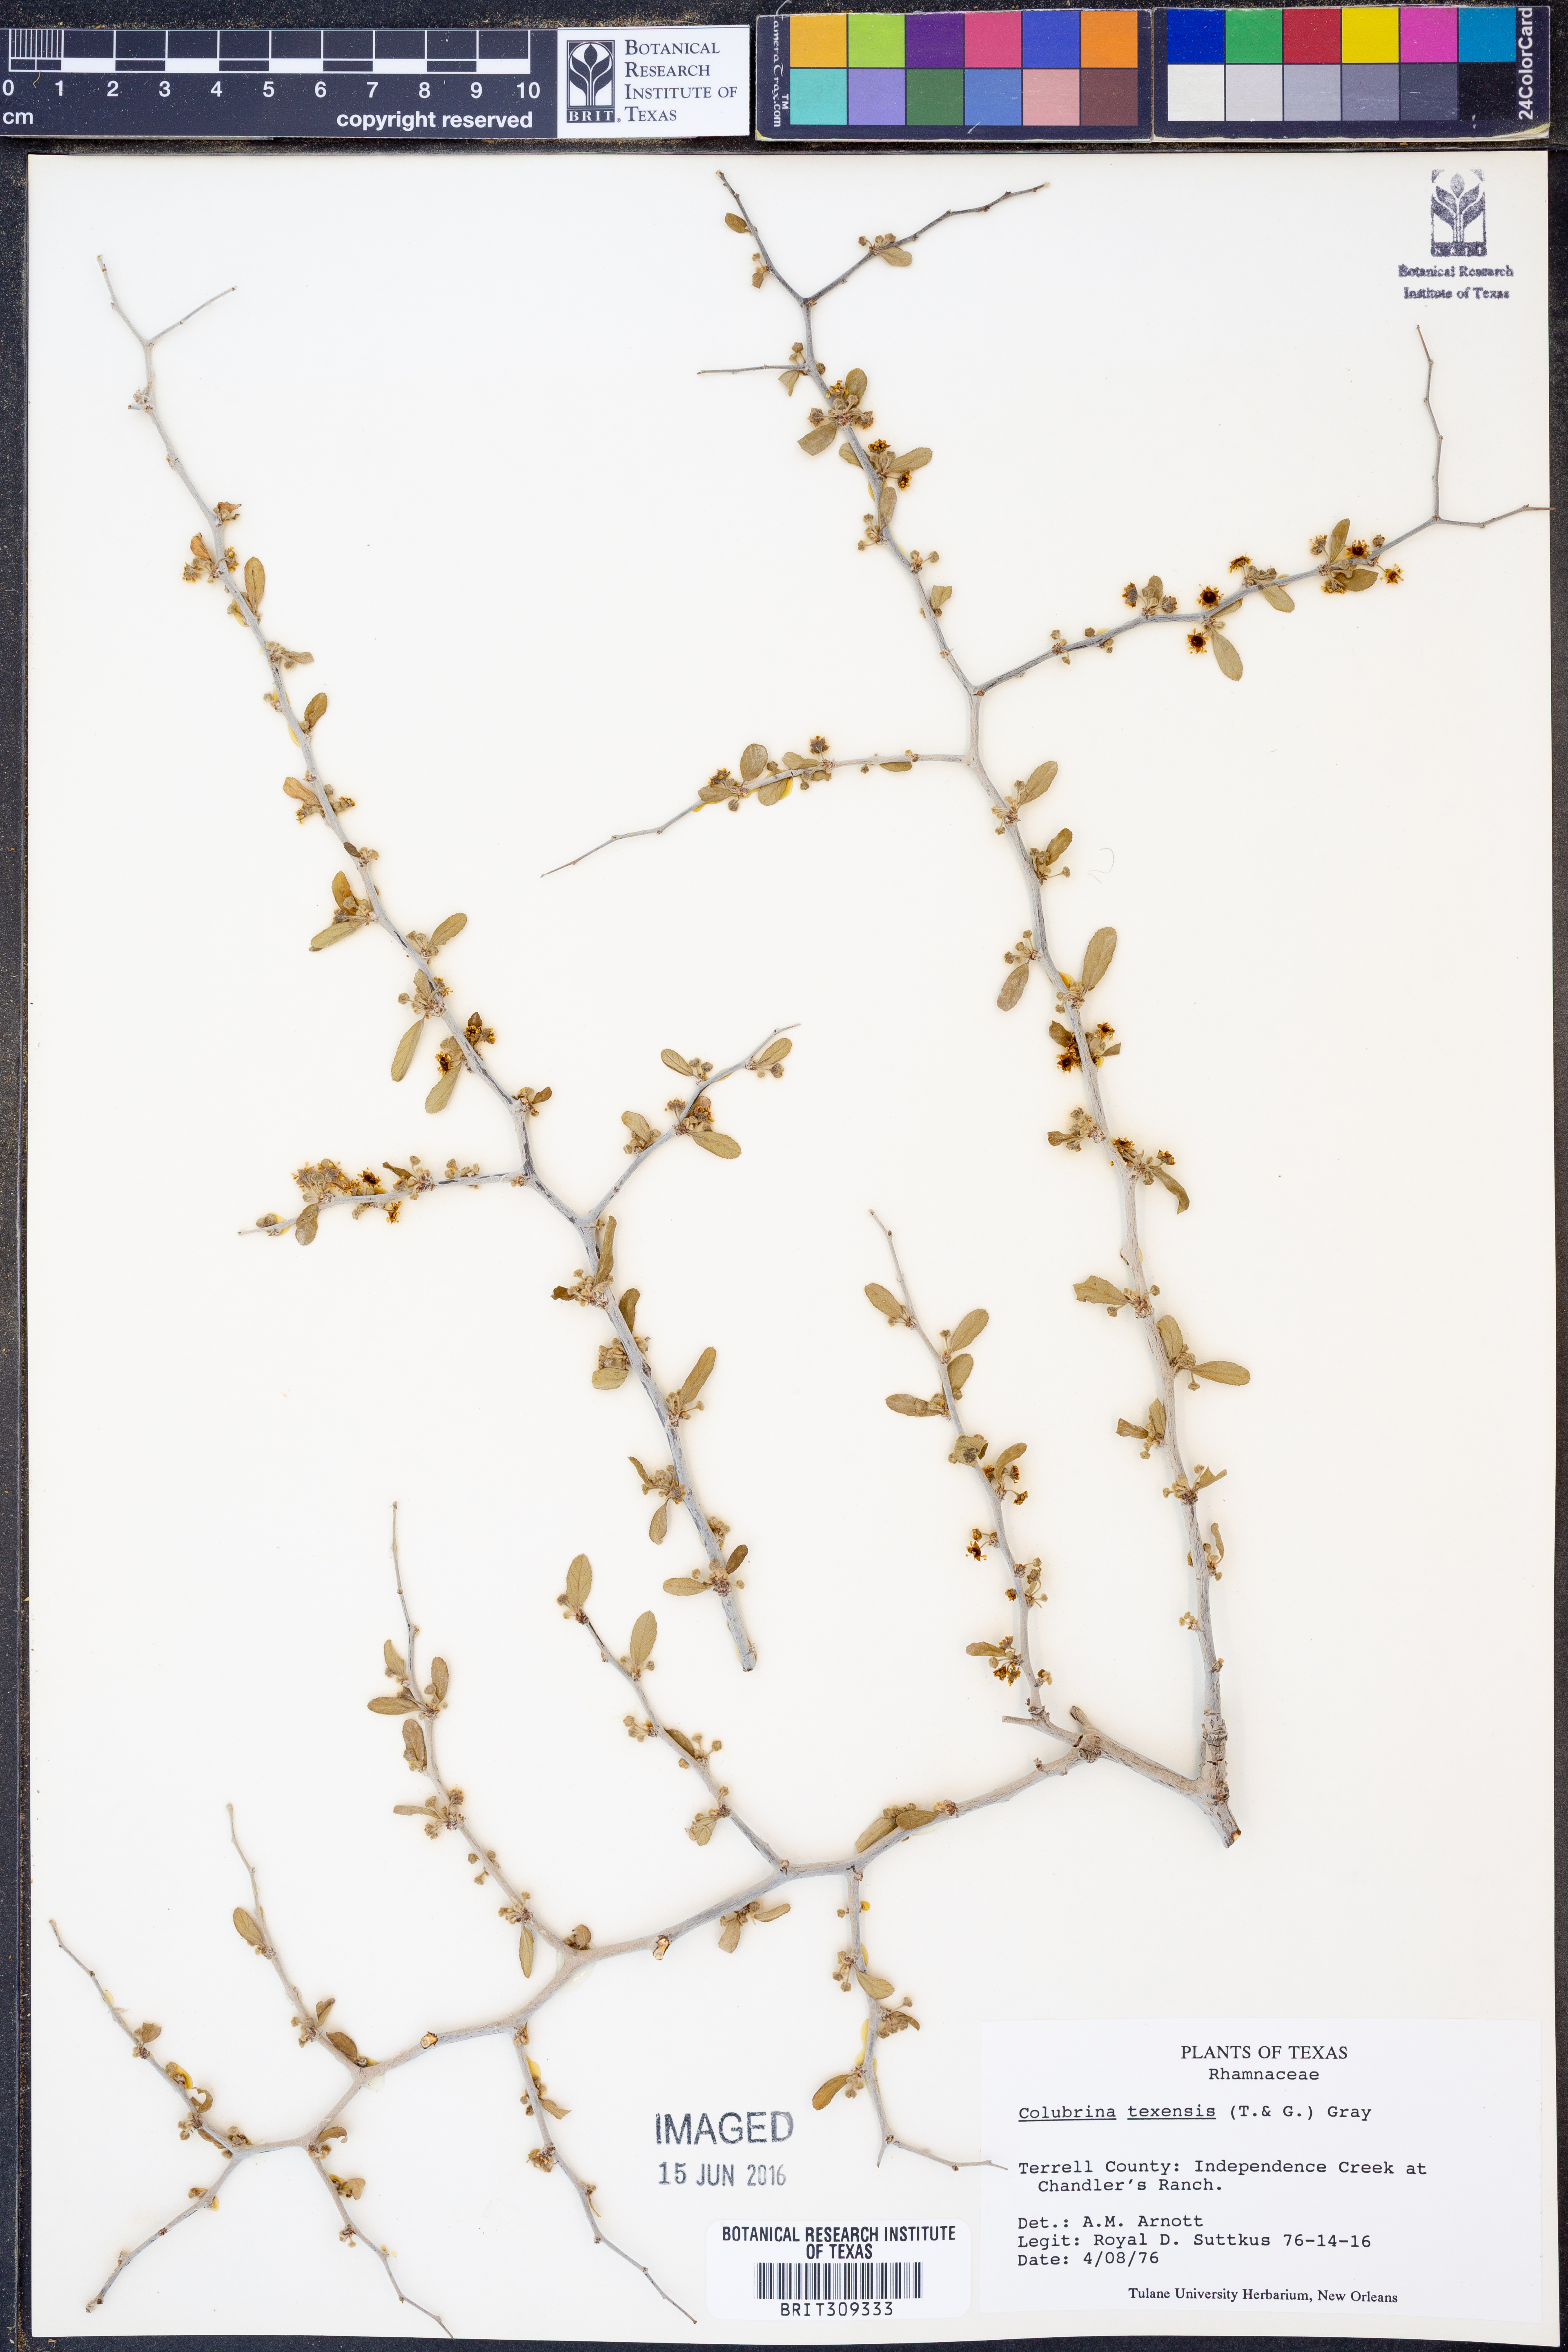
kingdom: Plantae
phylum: Tracheophyta
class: Magnoliopsida
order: Rosales
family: Rhamnaceae
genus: Colubrina
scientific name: Colubrina texensis
